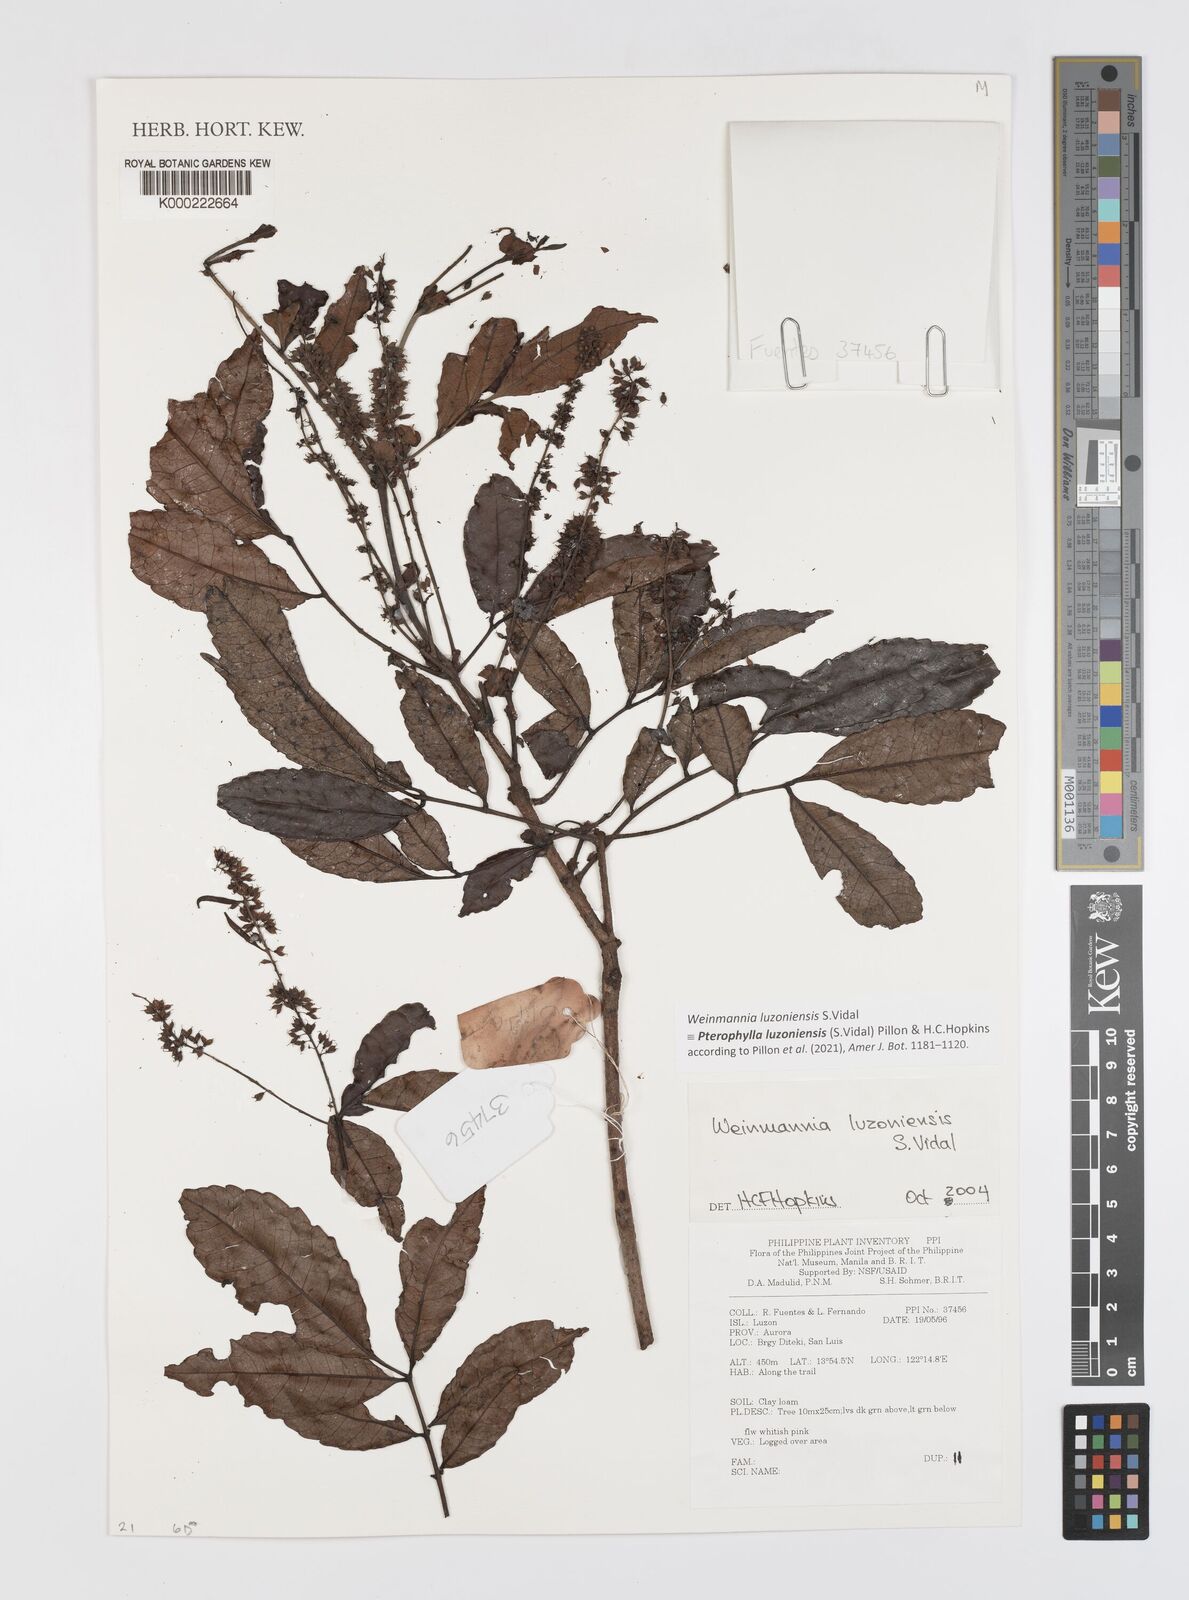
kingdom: Plantae
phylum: Tracheophyta
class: Magnoliopsida
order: Oxalidales
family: Cunoniaceae
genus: Pterophylla
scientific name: Pterophylla luzoniensis
